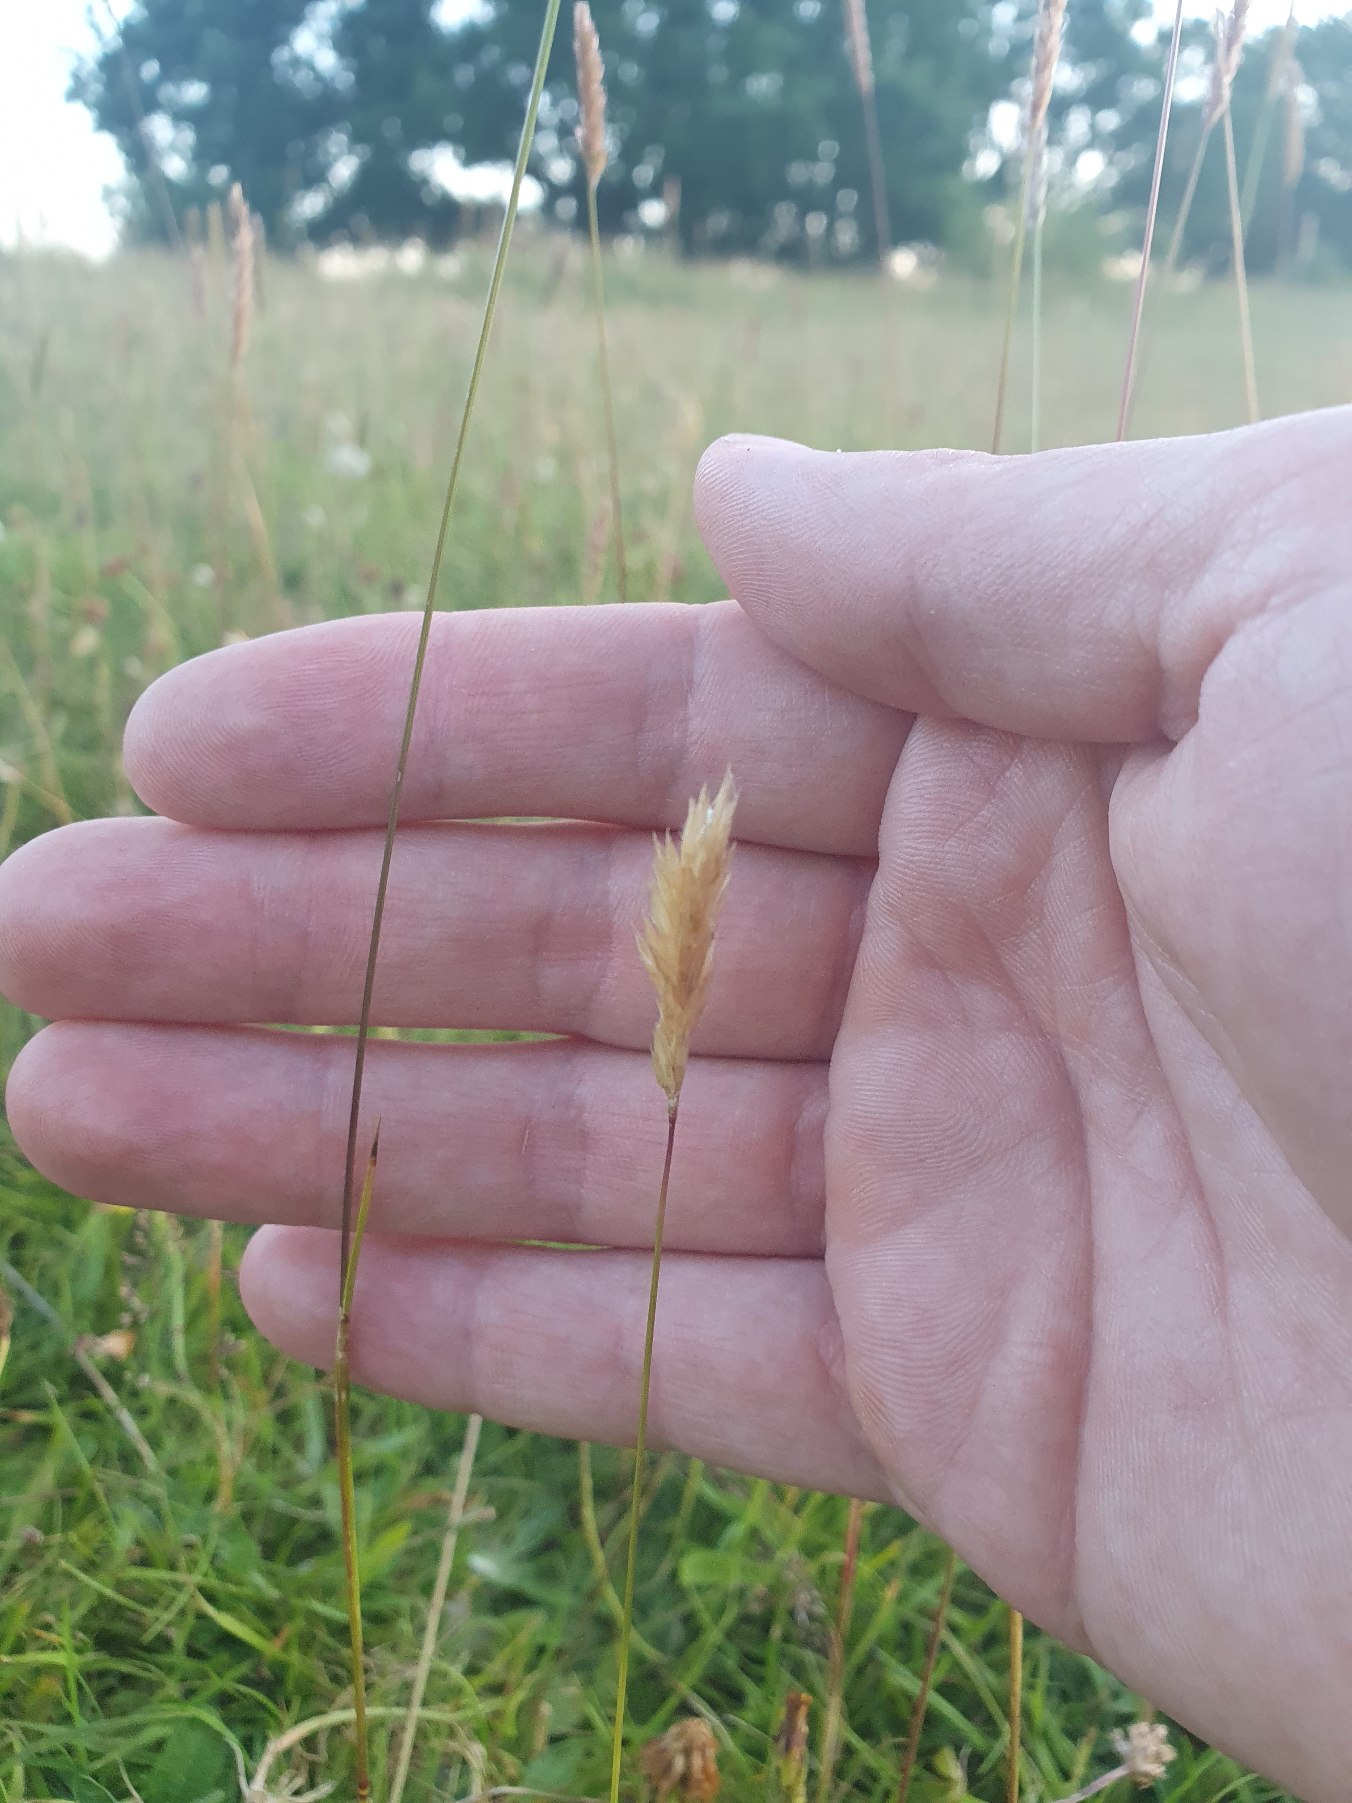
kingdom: Plantae
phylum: Tracheophyta
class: Liliopsida
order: Poales
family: Poaceae
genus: Anthoxanthum
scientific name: Anthoxanthum odoratum
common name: Vellugtende gulaks
